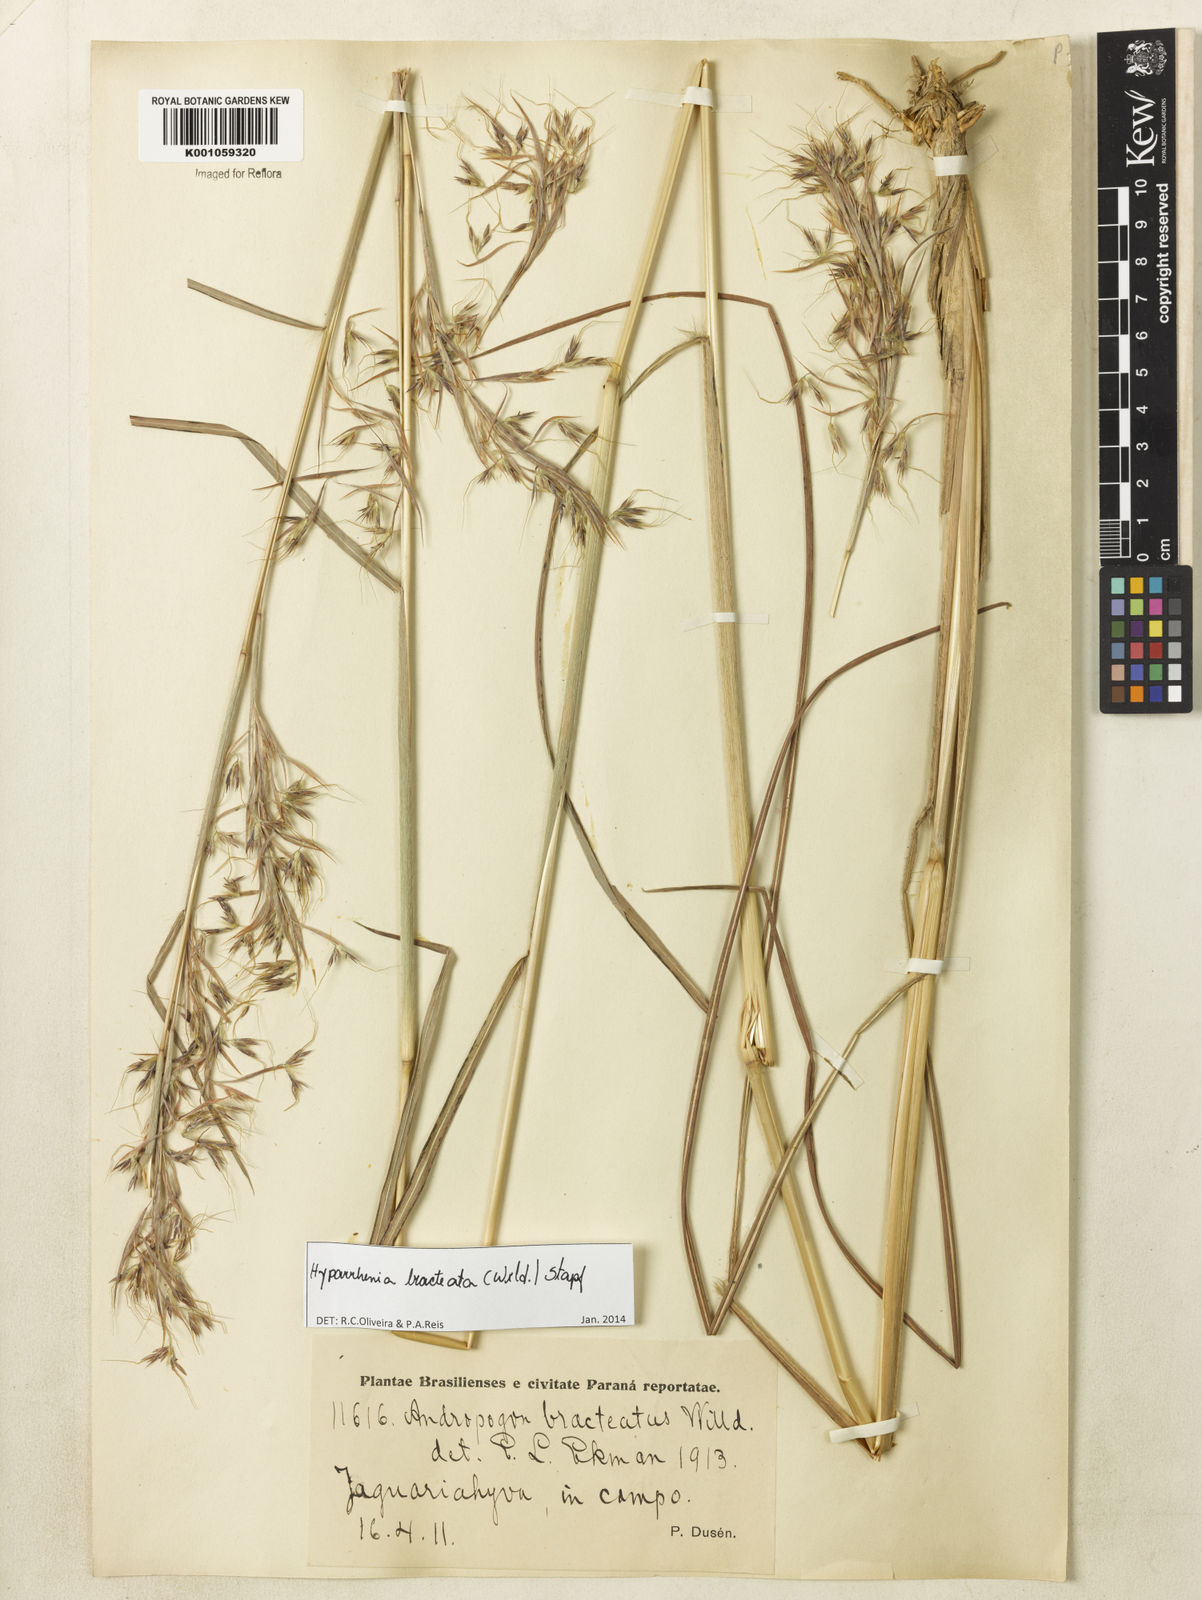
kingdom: Plantae
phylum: Tracheophyta
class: Liliopsida
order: Poales
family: Poaceae
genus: Hyparrhenia
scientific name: Hyparrhenia bracteata
